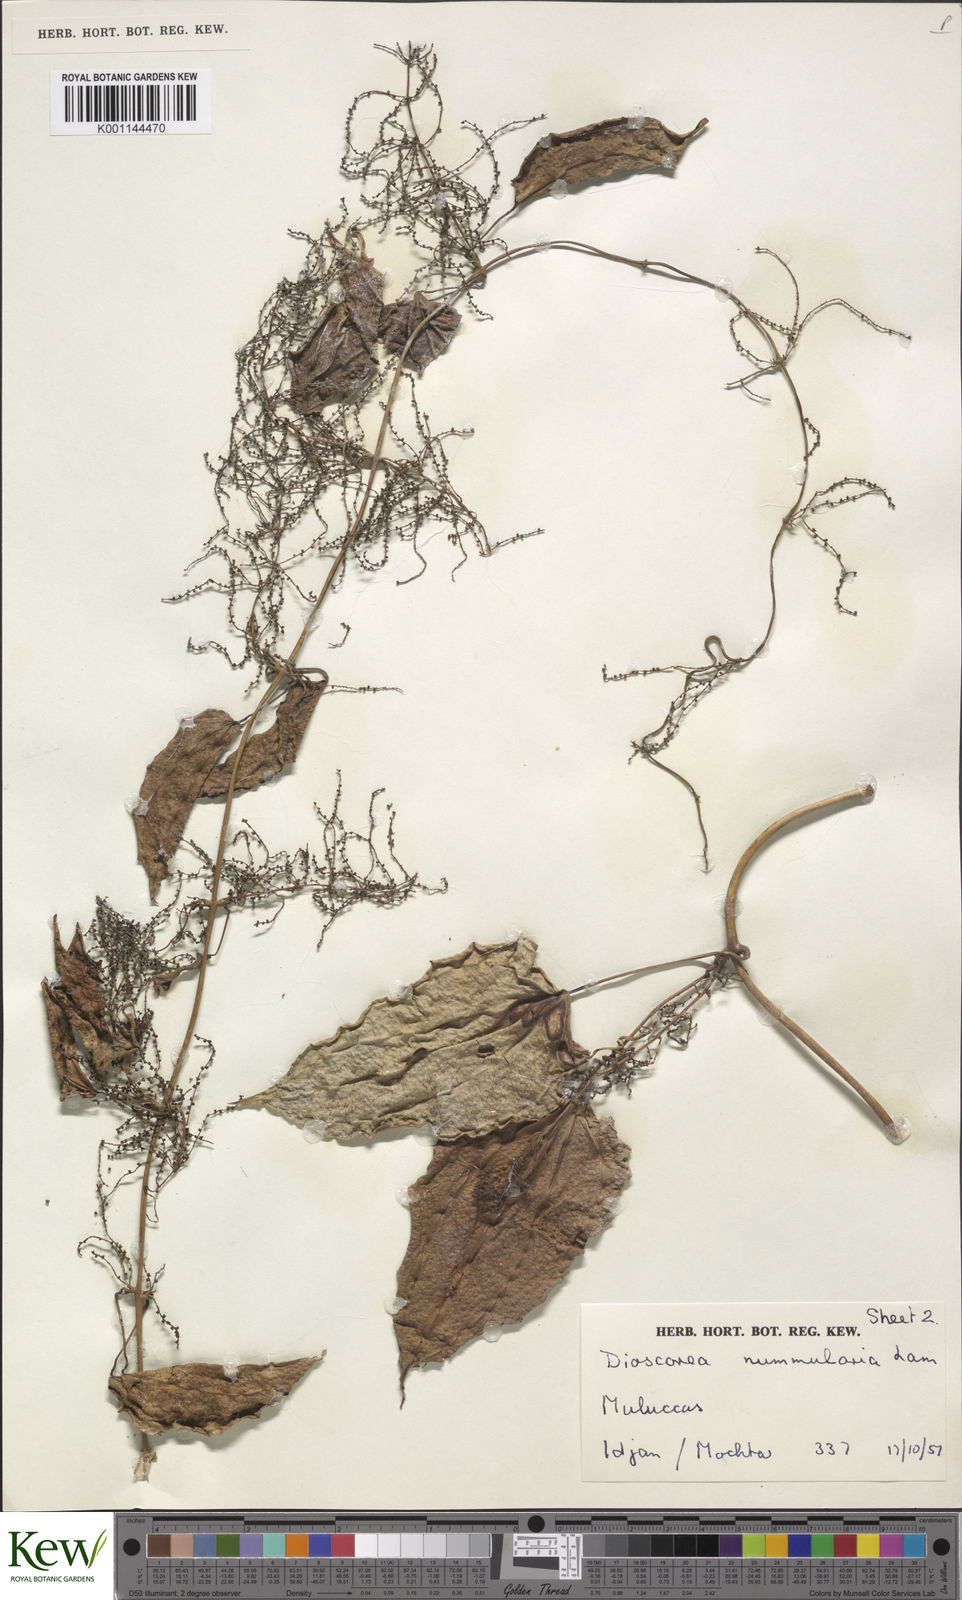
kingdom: Plantae
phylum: Tracheophyta
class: Liliopsida
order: Dioscoreales
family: Dioscoreaceae
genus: Dioscorea
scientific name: Dioscorea nummularia
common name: Pacific yam
